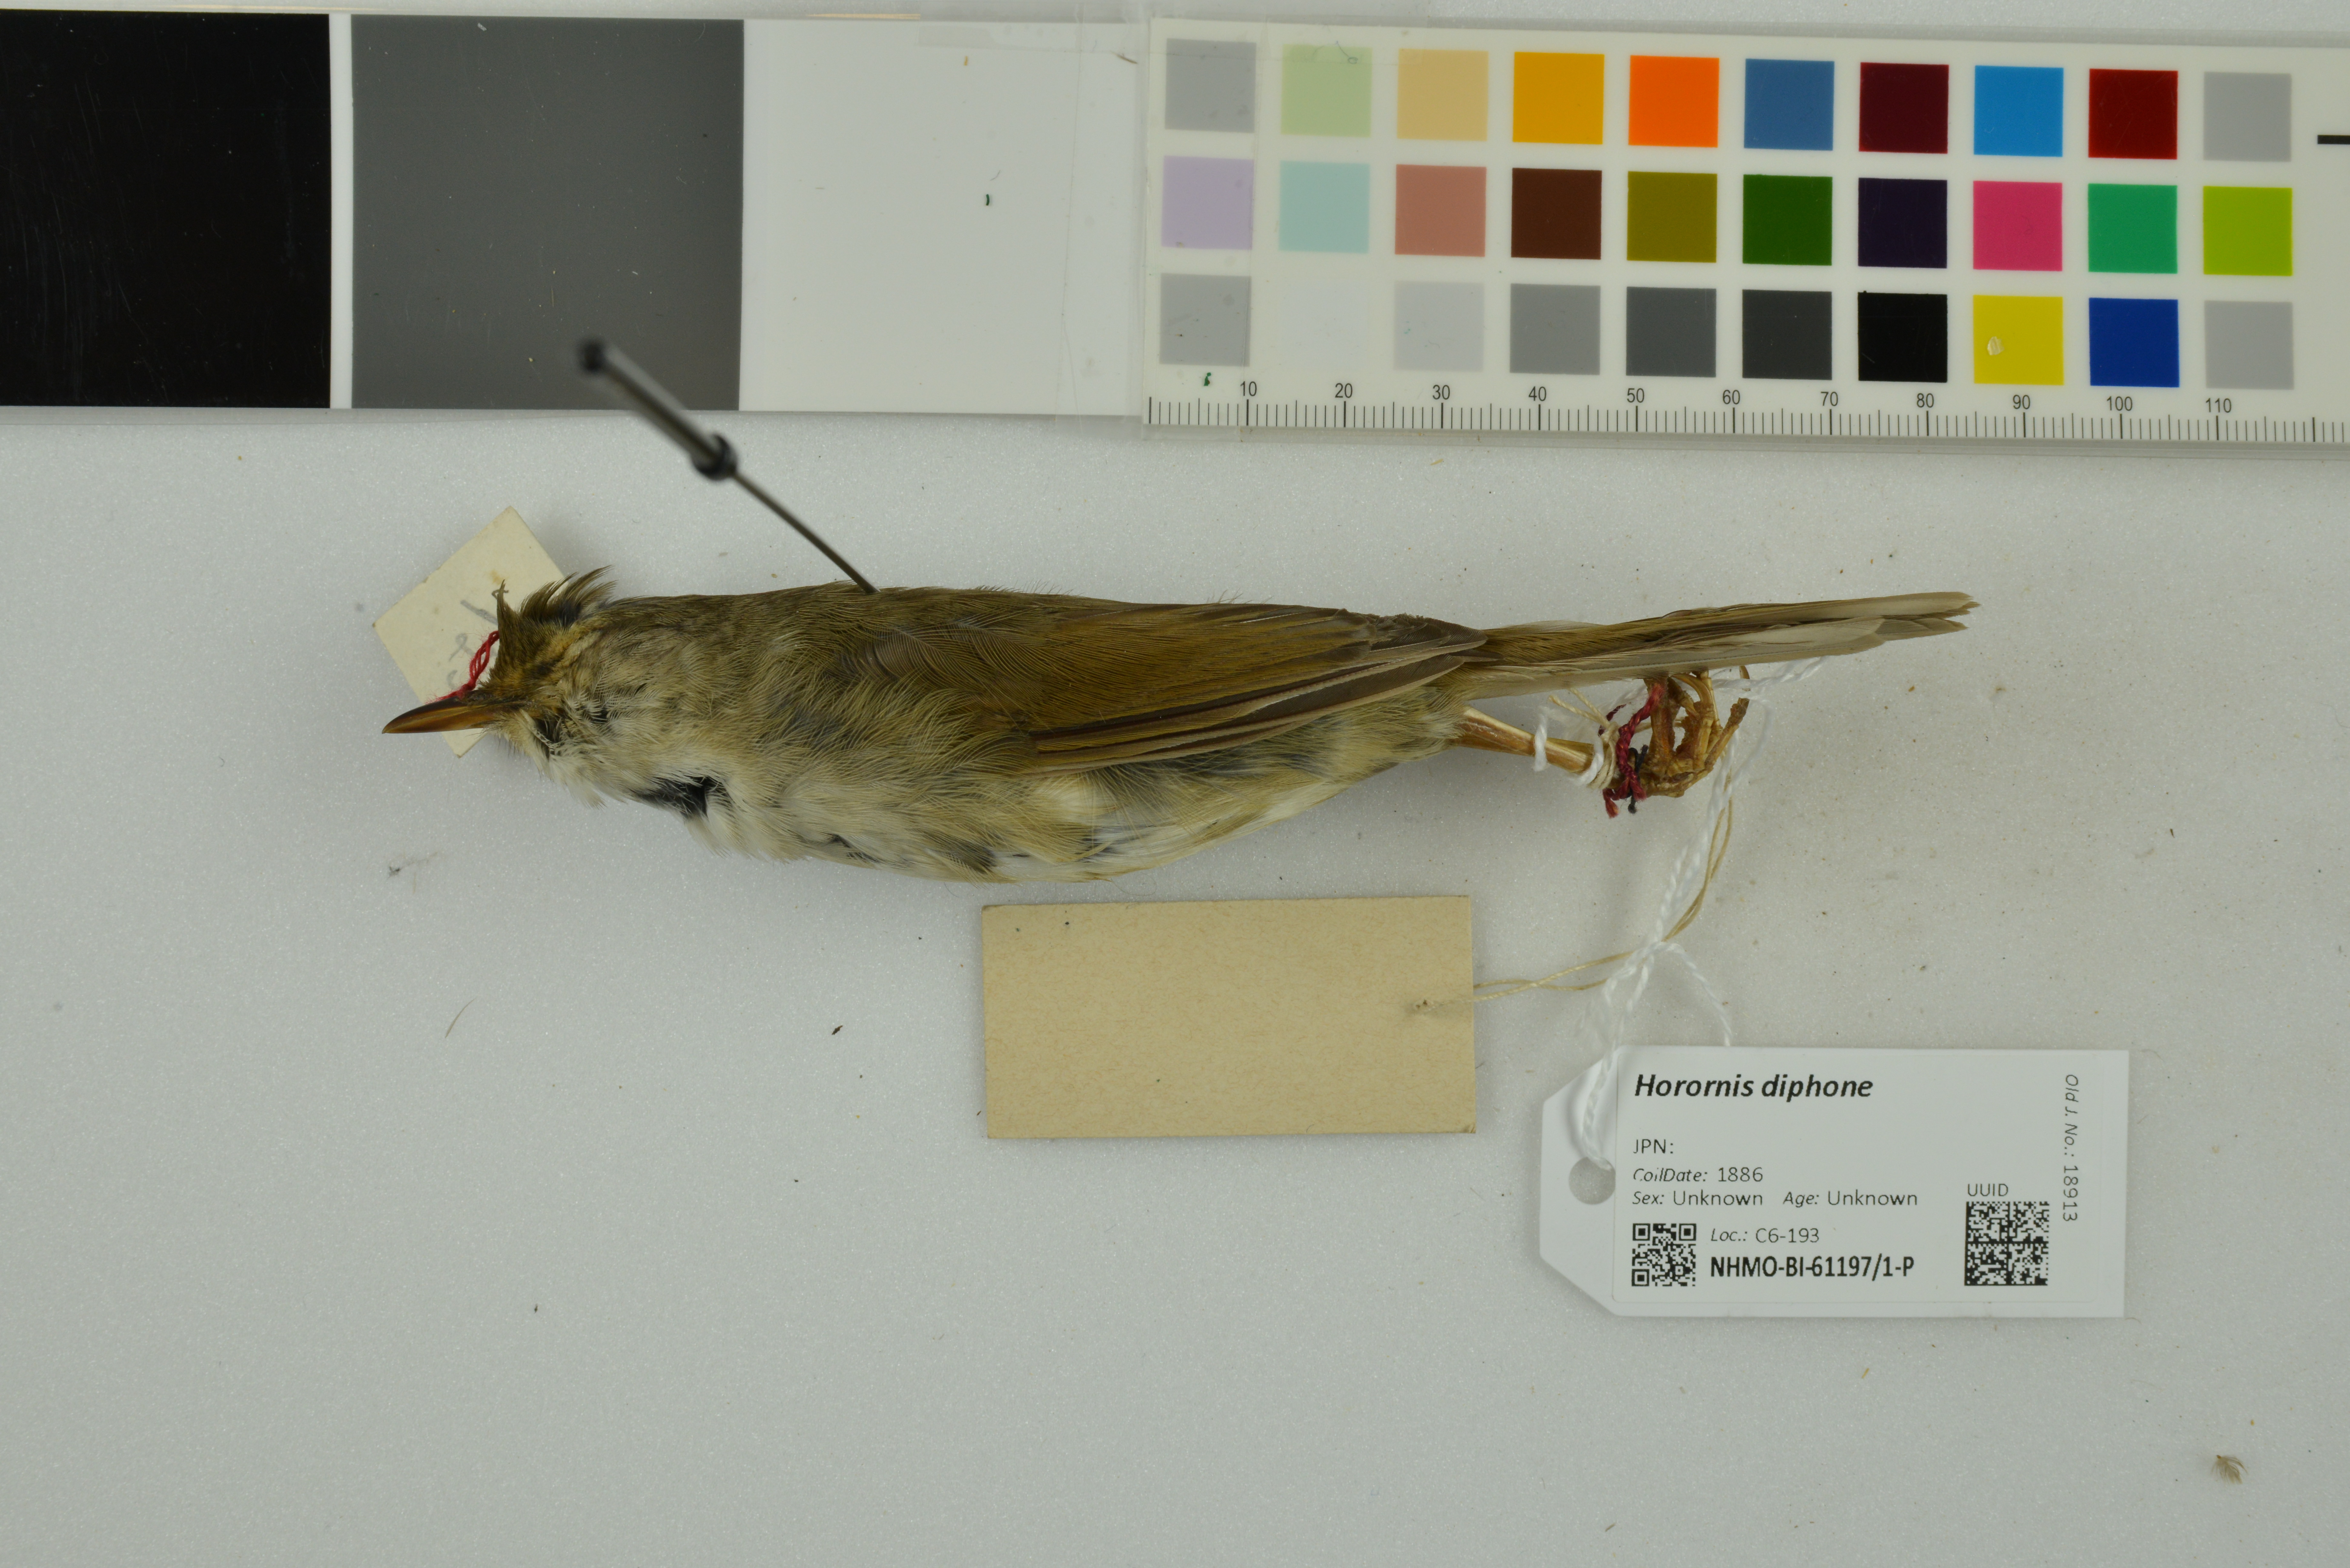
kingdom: Animalia
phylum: Chordata
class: Aves
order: Passeriformes
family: Cettiidae
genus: Horornis
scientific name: Horornis diphone
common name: Japanese bush warbler
